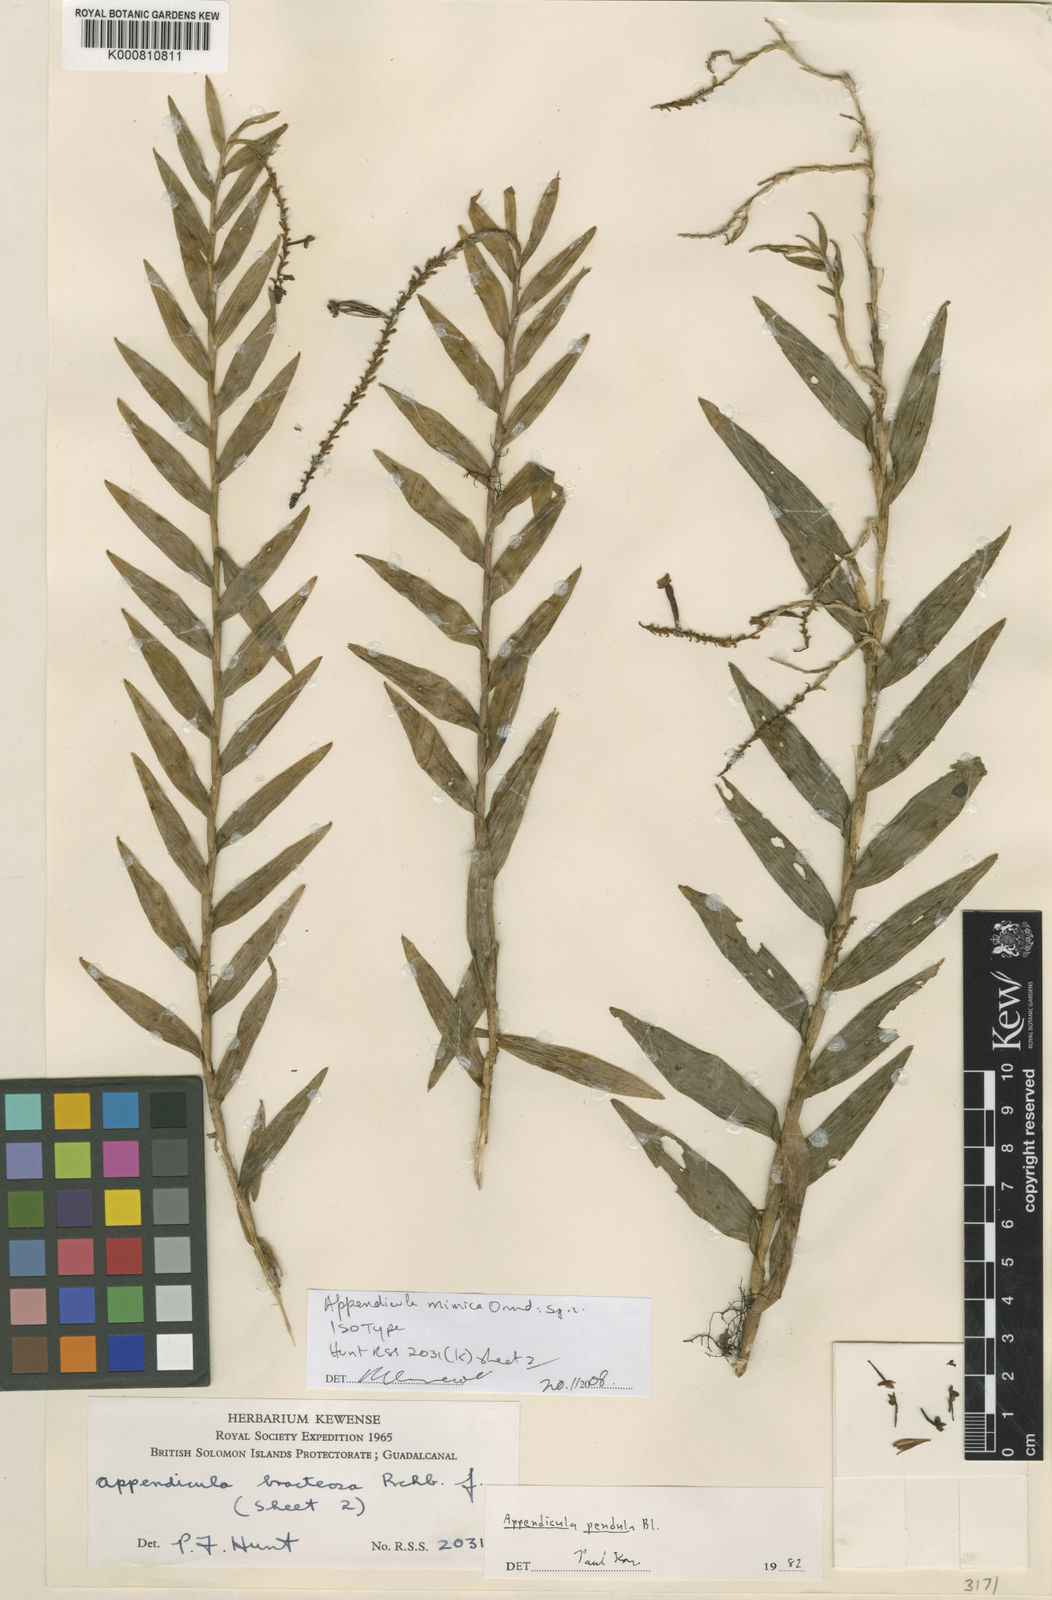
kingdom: Plantae
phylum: Tracheophyta
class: Liliopsida
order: Asparagales
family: Orchidaceae
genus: Appendicula
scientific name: Appendicula mimica
